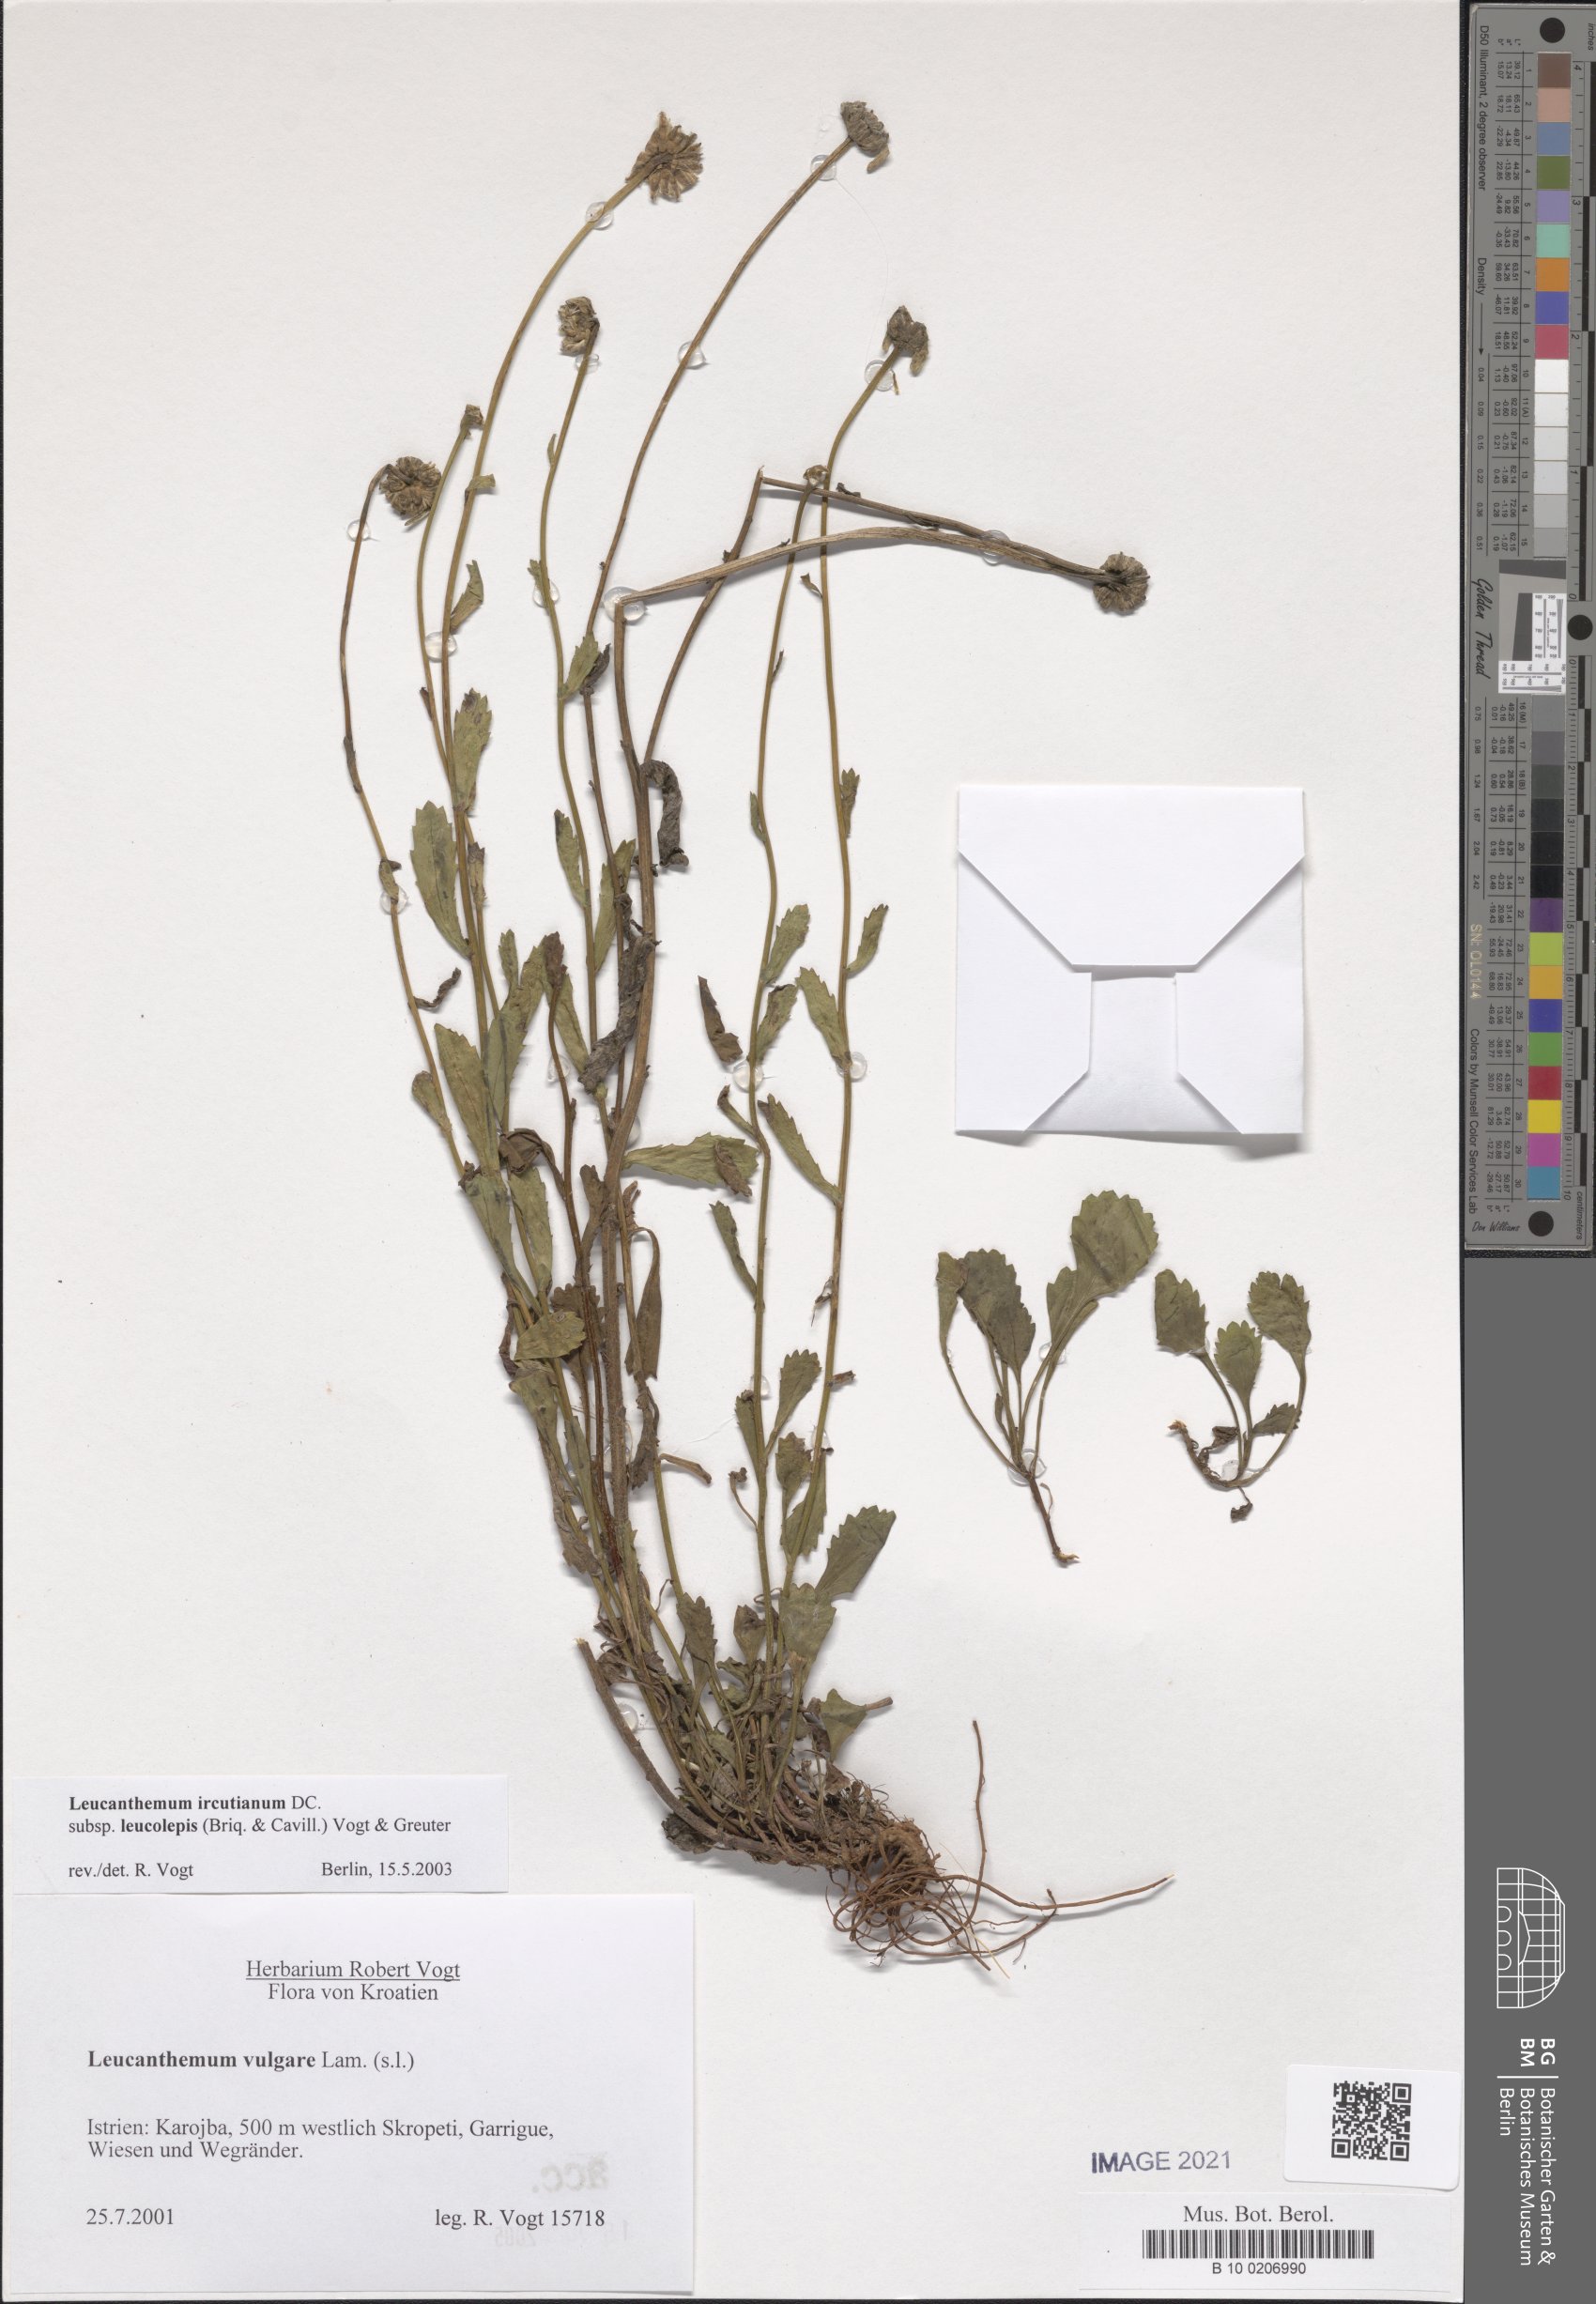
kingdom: Plantae
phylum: Tracheophyta
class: Magnoliopsida
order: Asterales
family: Asteraceae
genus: Leucanthemum
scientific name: Leucanthemum ircutianum
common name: Daisy
